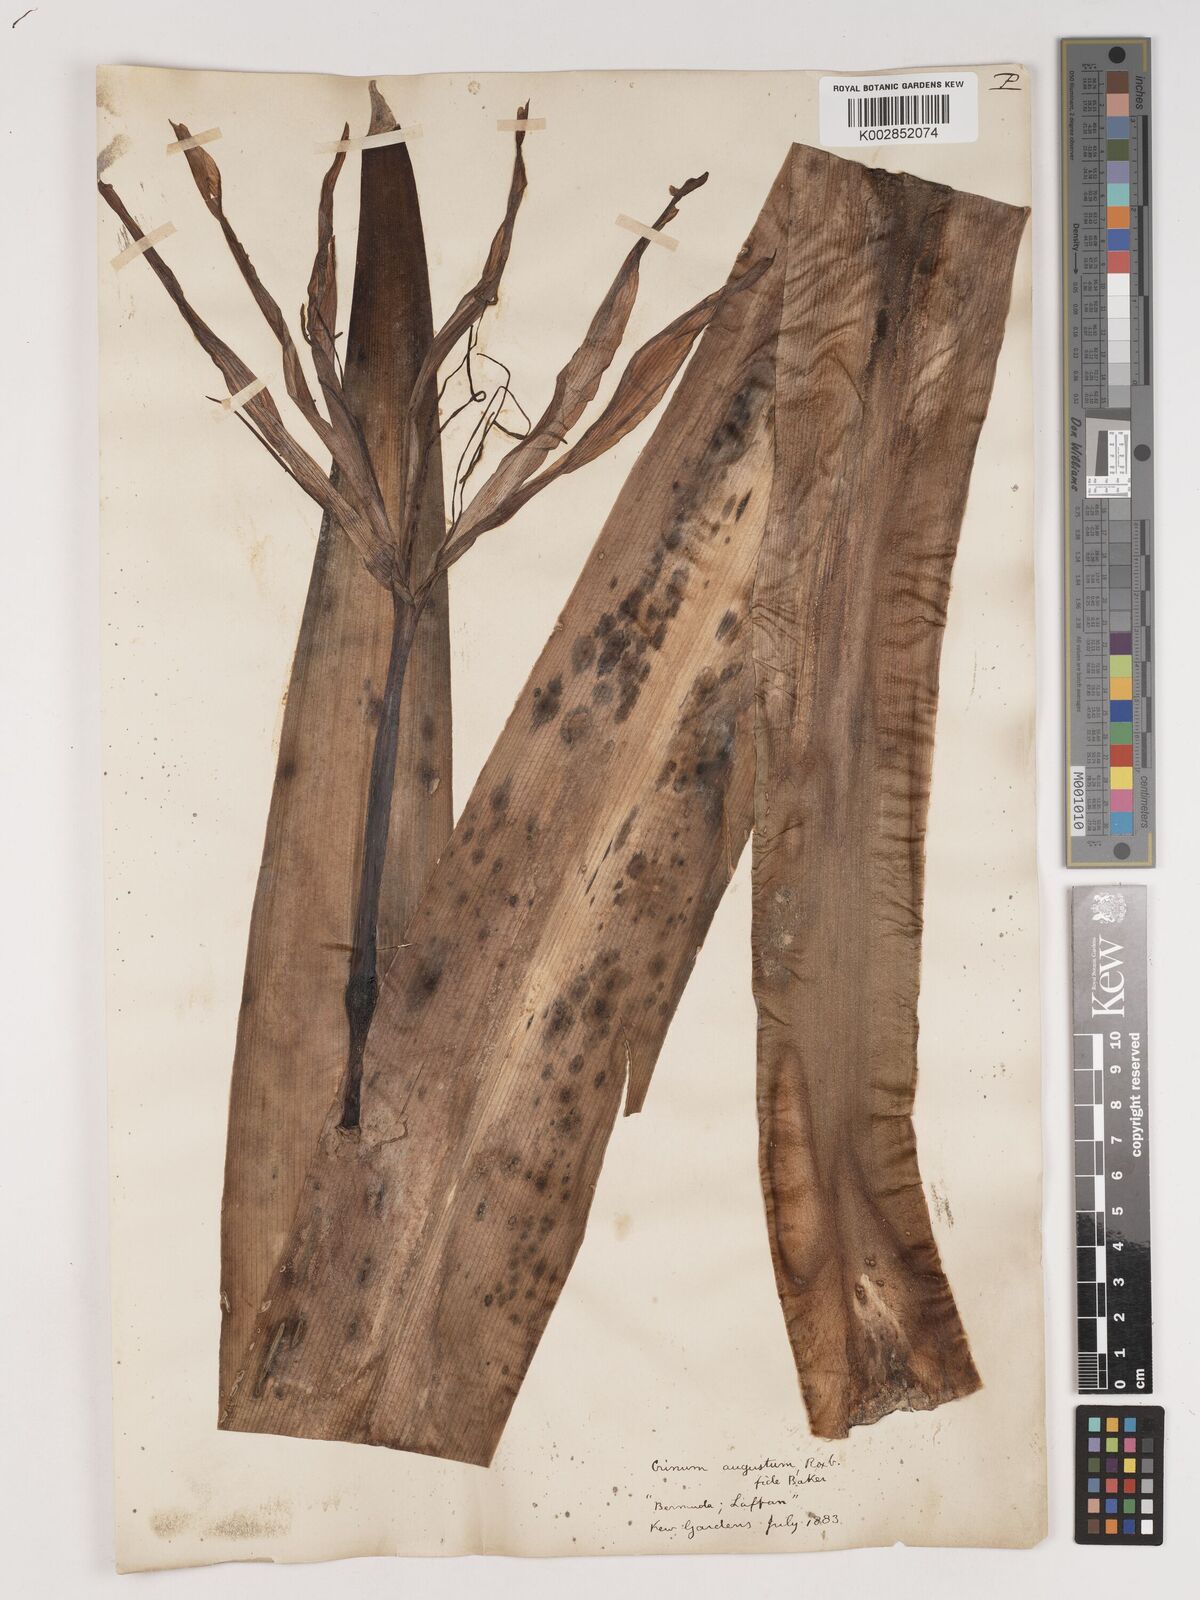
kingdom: Plantae
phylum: Tracheophyta
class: Liliopsida
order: Asparagales
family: Amaryllidaceae
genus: Crinum
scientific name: Crinum amabile
